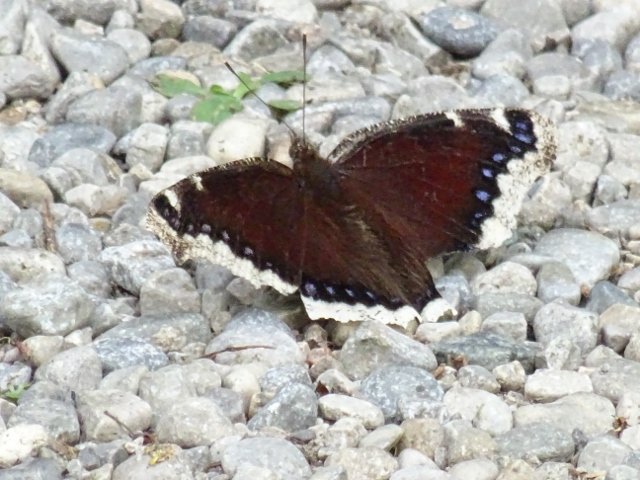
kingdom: Animalia
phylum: Arthropoda
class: Insecta
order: Lepidoptera
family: Nymphalidae
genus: Nymphalis
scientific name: Nymphalis antiopa
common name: Mourning Cloak
